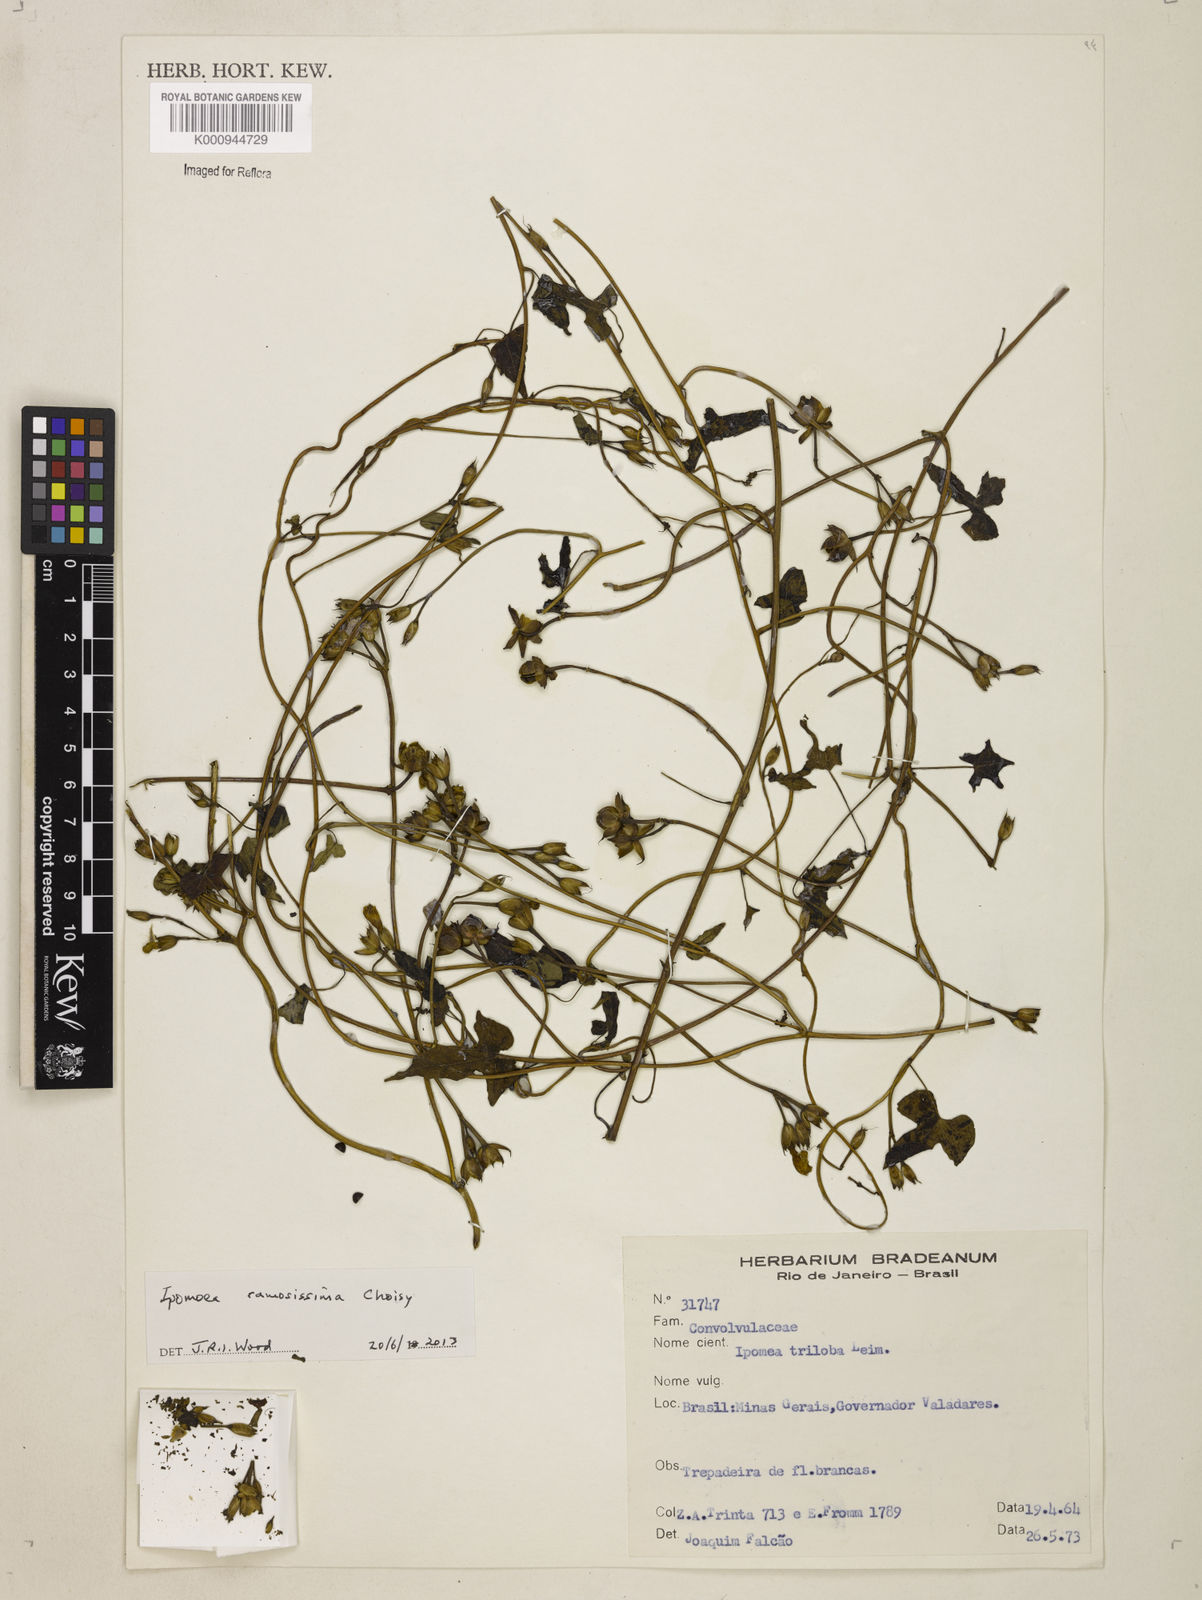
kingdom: Plantae
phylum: Tracheophyta
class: Magnoliopsida
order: Solanales
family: Convolvulaceae
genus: Ipomoea
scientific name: Ipomoea ramosissima
